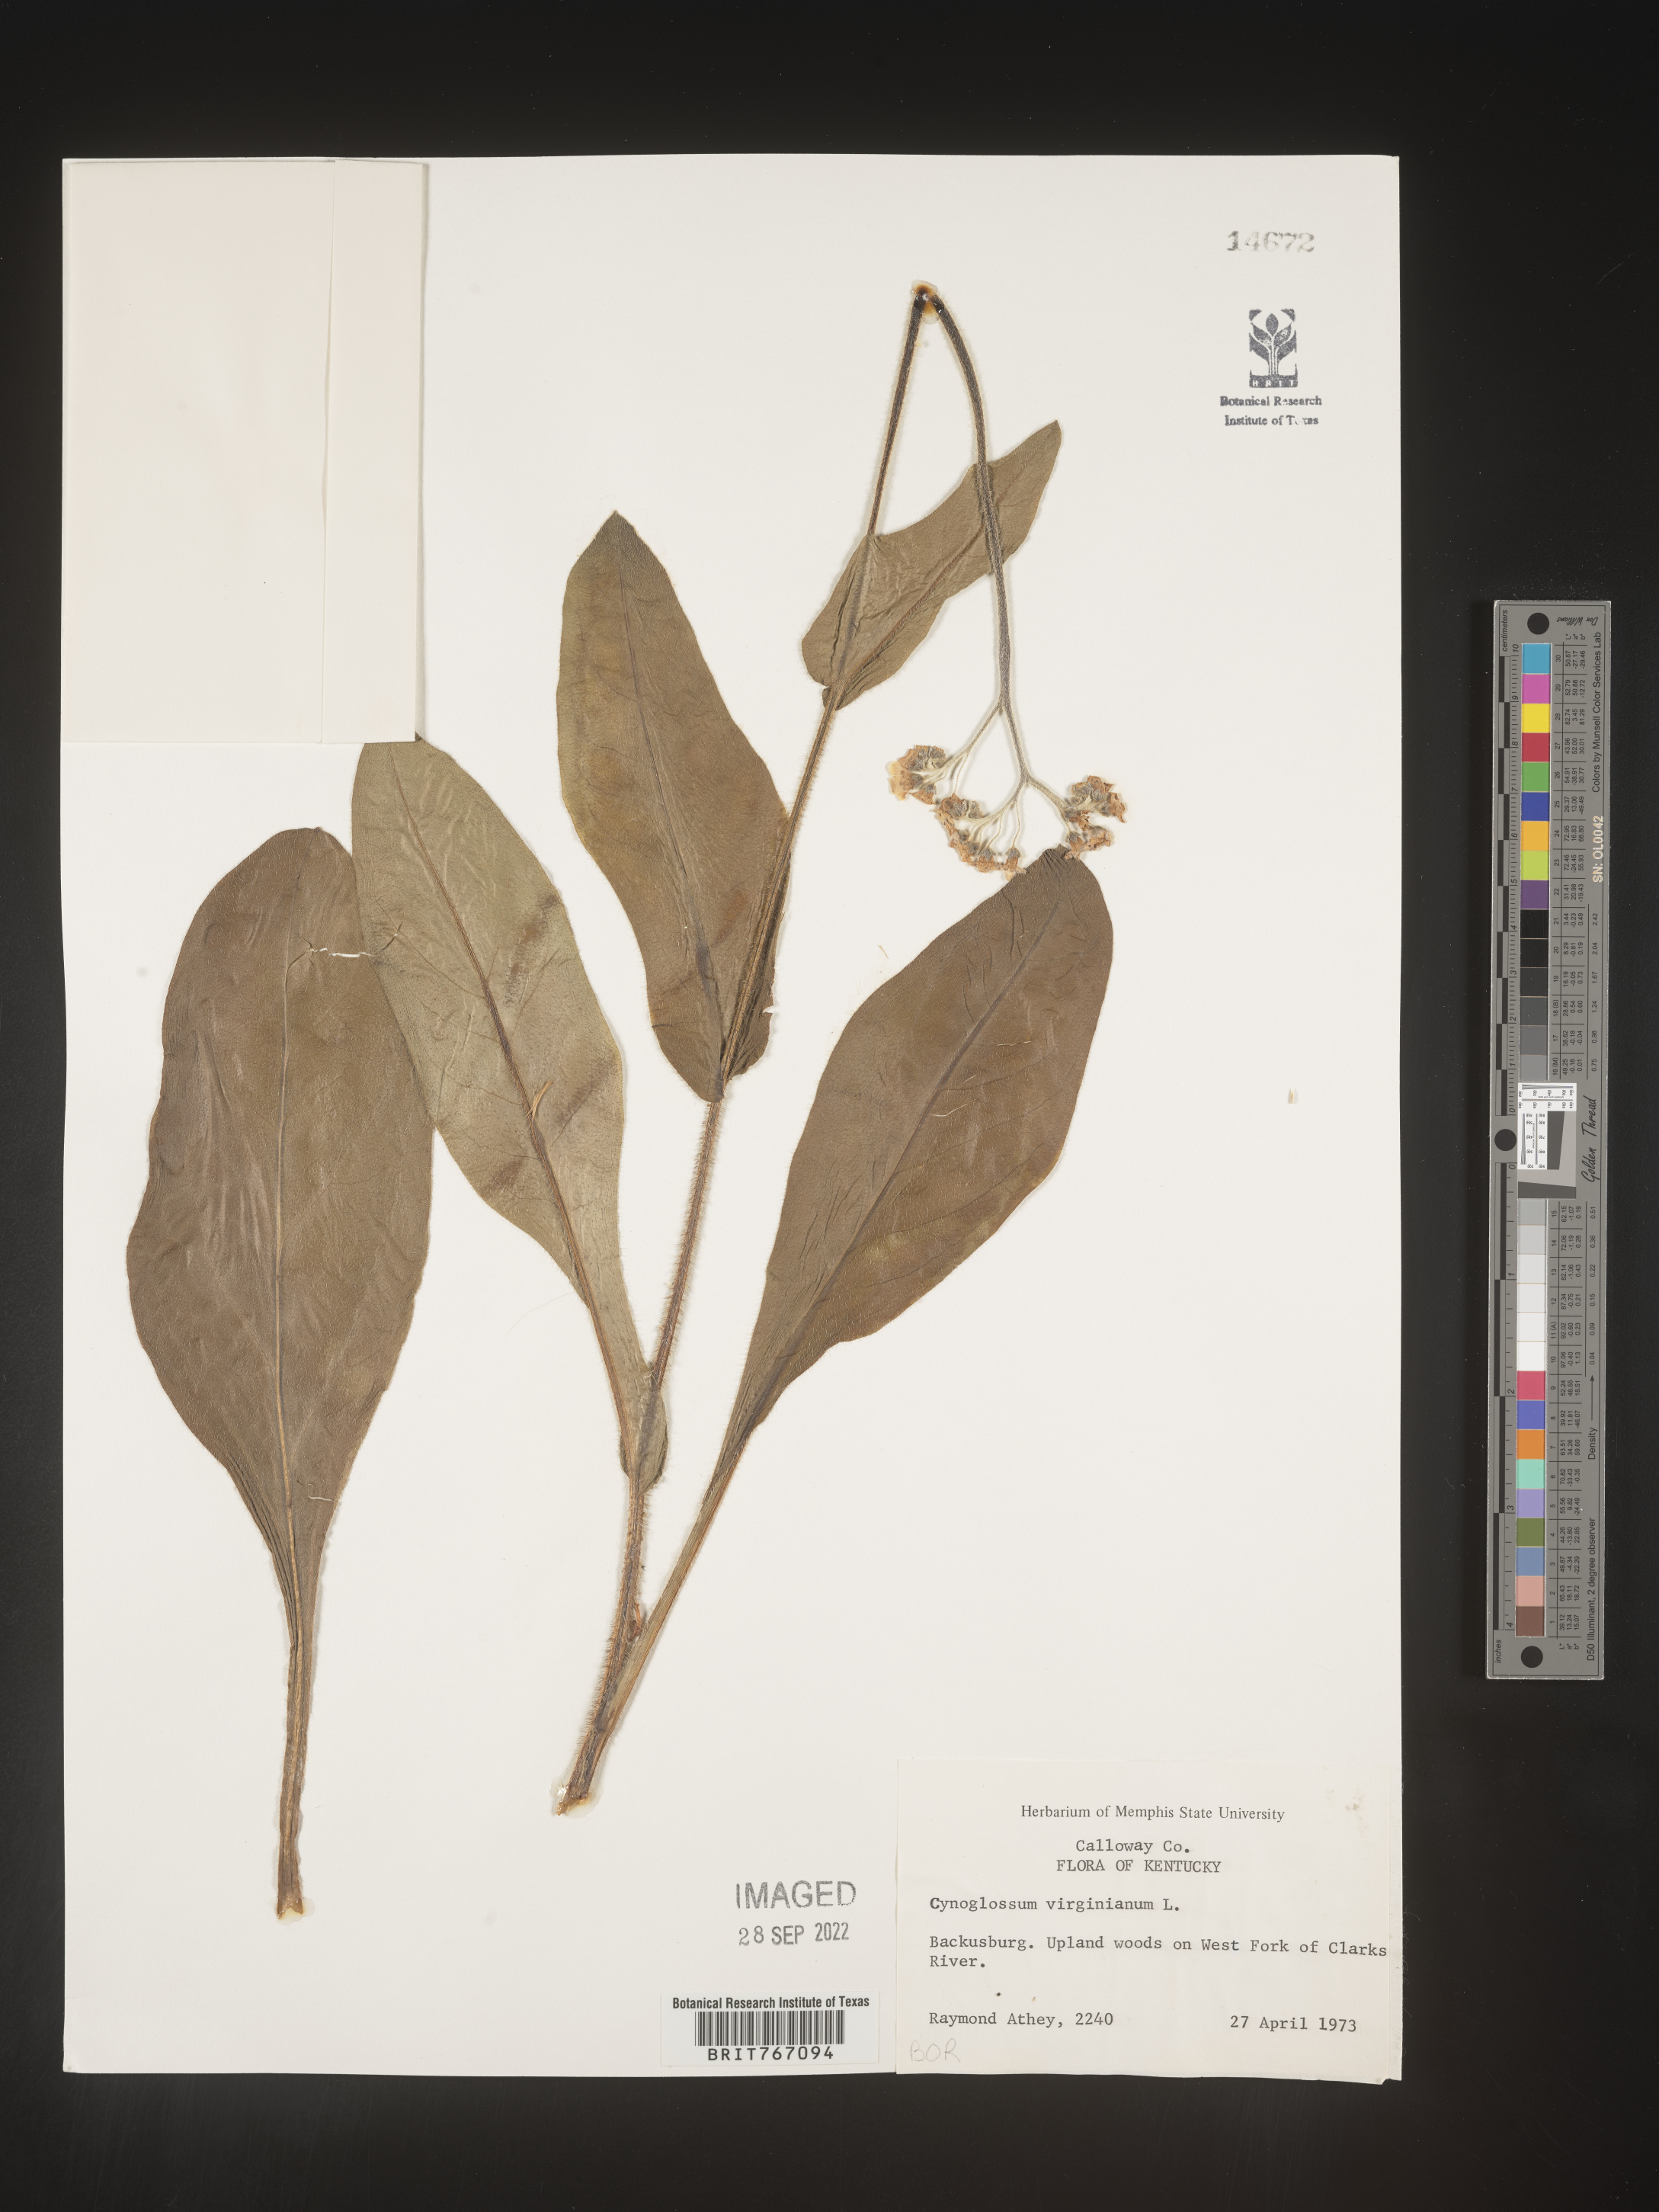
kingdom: Plantae
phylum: Tracheophyta
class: Magnoliopsida
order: Boraginales
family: Boraginaceae
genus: Andersonglossum
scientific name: Andersonglossum virginianum
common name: Wild comfrey
